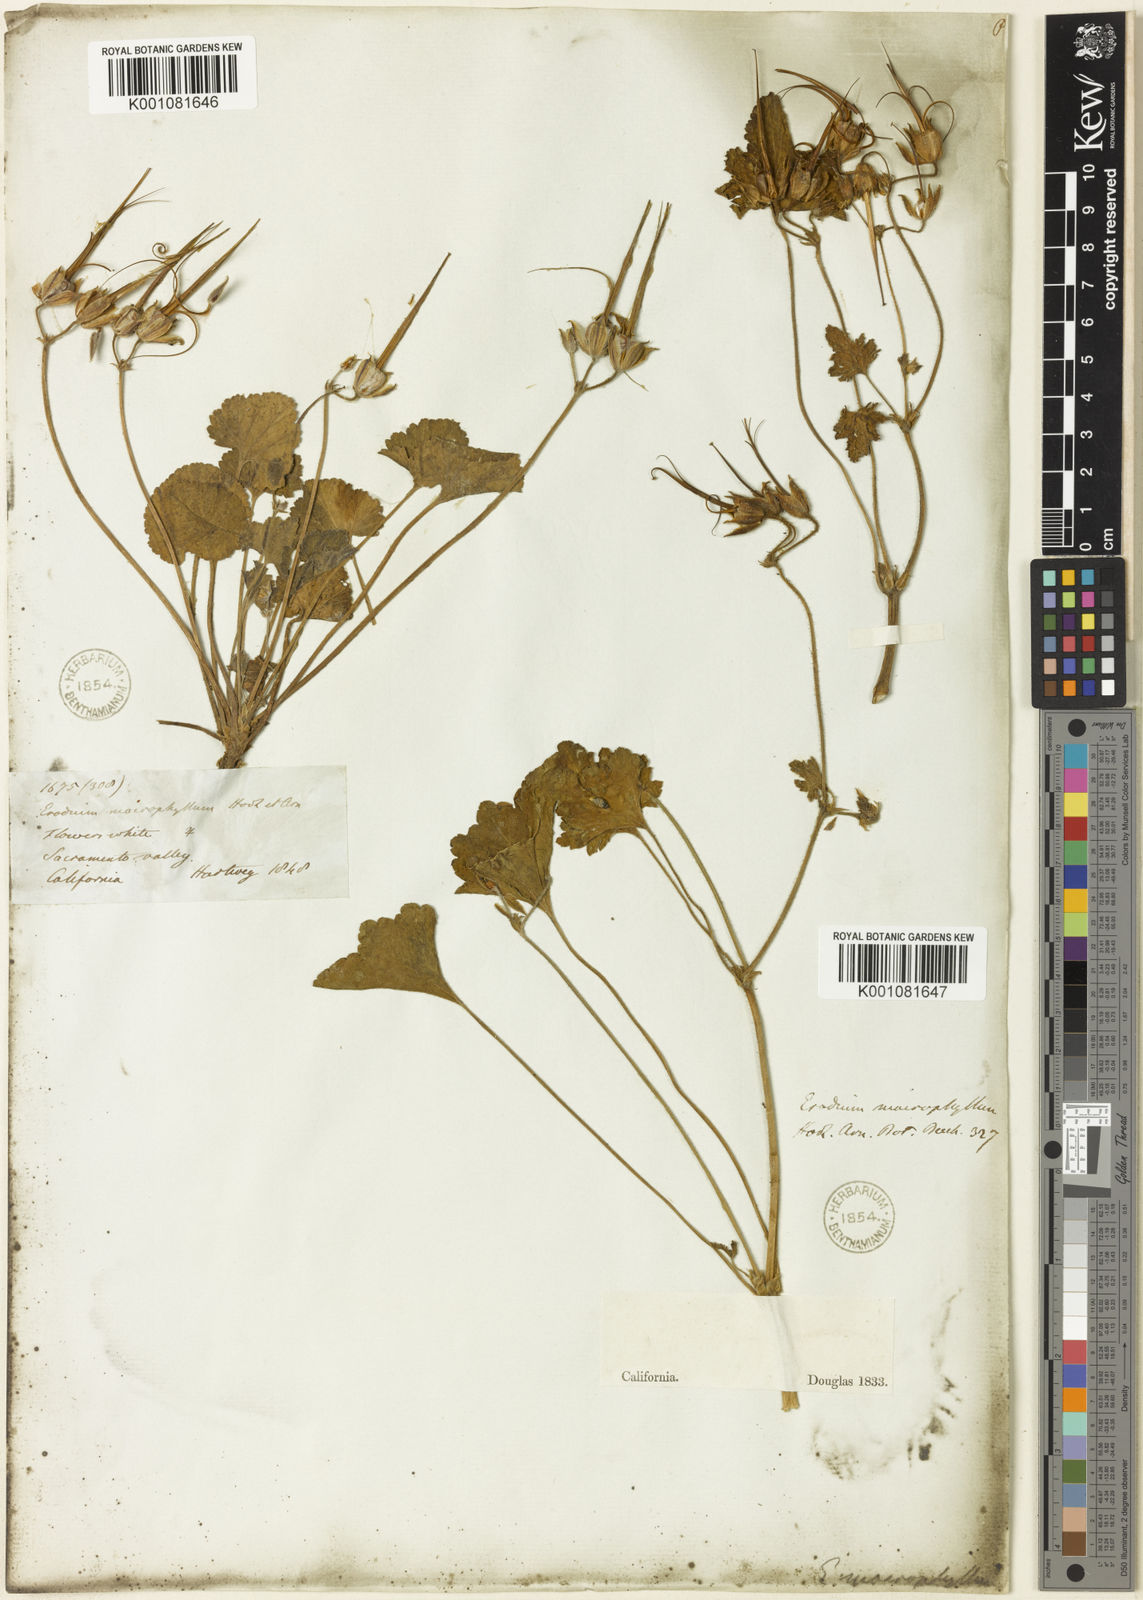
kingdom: Plantae
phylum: Tracheophyta
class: Magnoliopsida
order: Geraniales
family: Geraniaceae
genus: California
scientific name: California macrophylla
